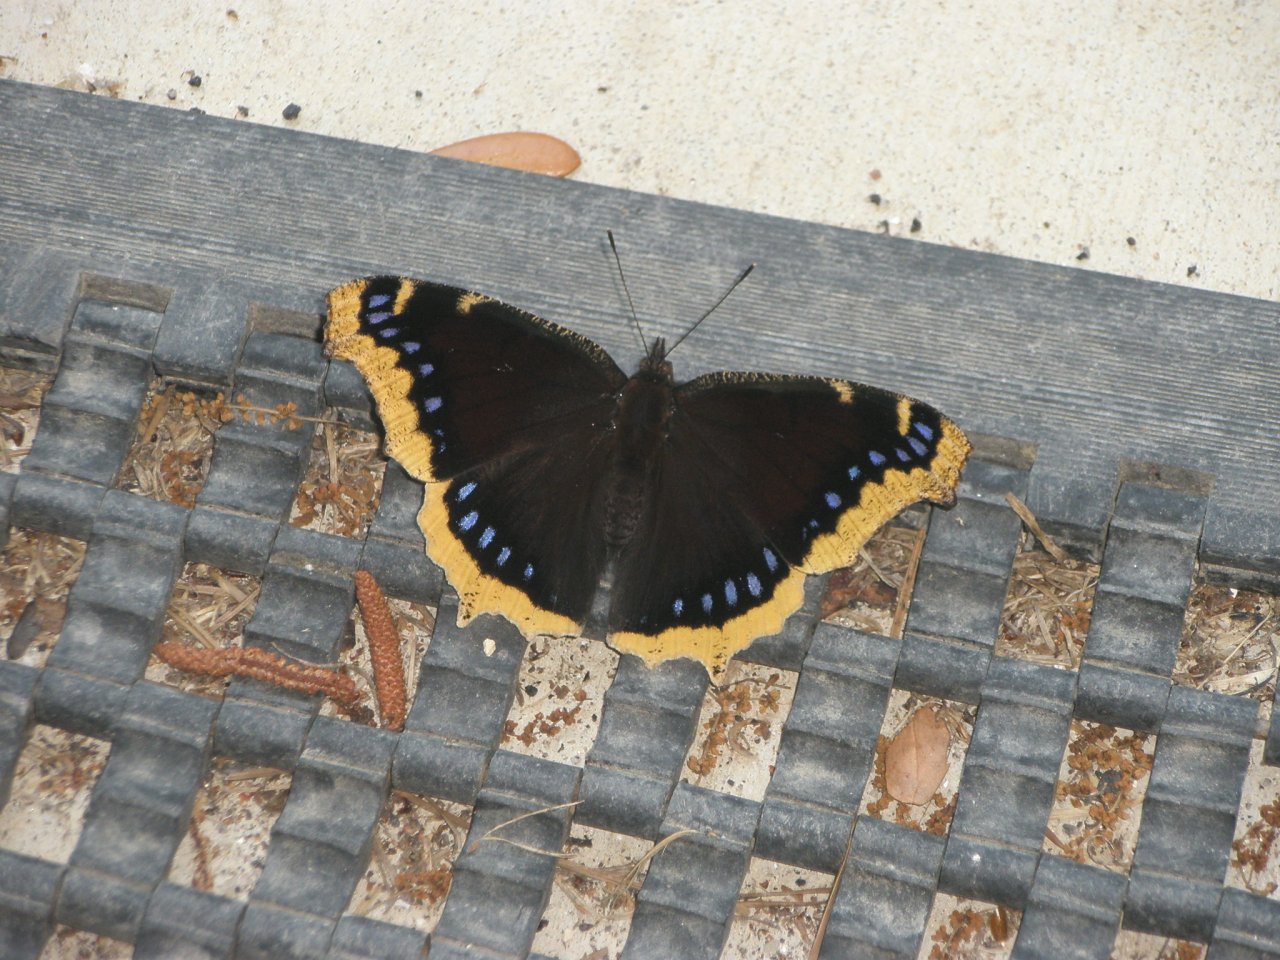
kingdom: Animalia
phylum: Arthropoda
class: Insecta
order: Lepidoptera
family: Nymphalidae
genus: Nymphalis
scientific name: Nymphalis antiopa
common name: Mourning Cloak
